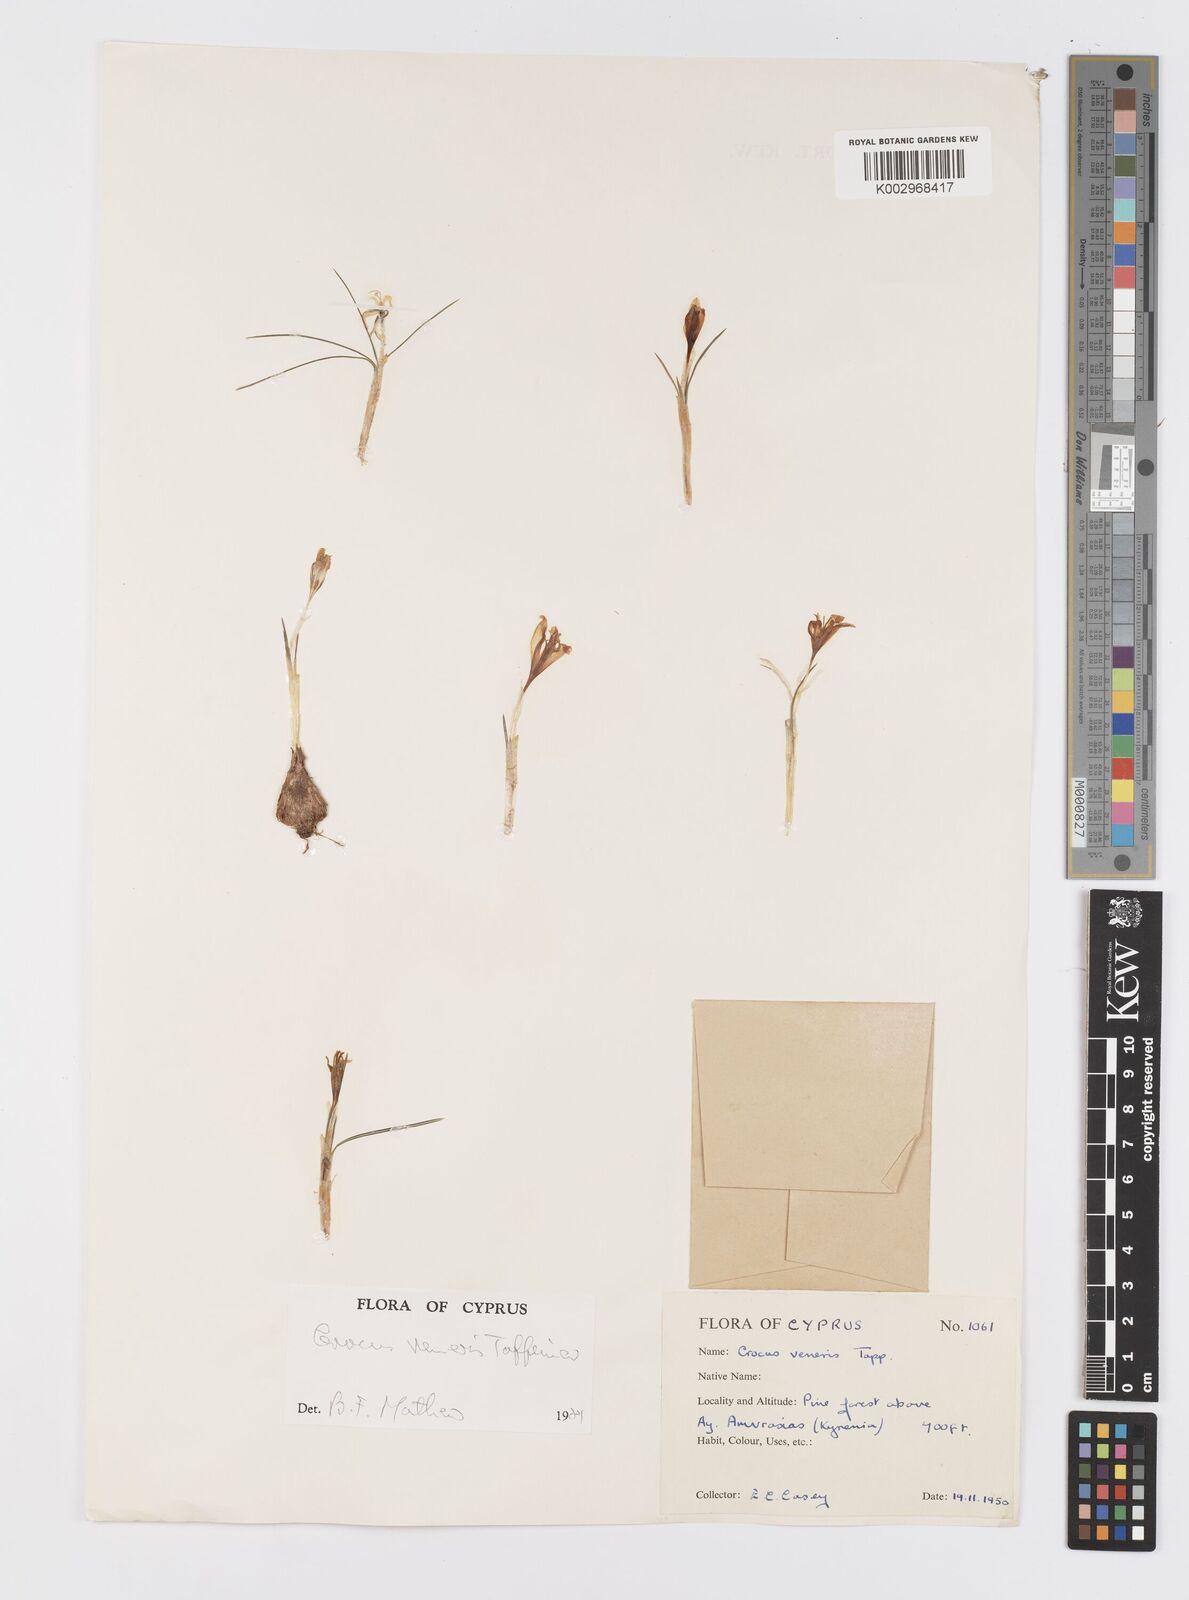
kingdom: Plantae
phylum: Tracheophyta
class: Liliopsida
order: Asparagales
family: Iridaceae
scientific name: Iridaceae
